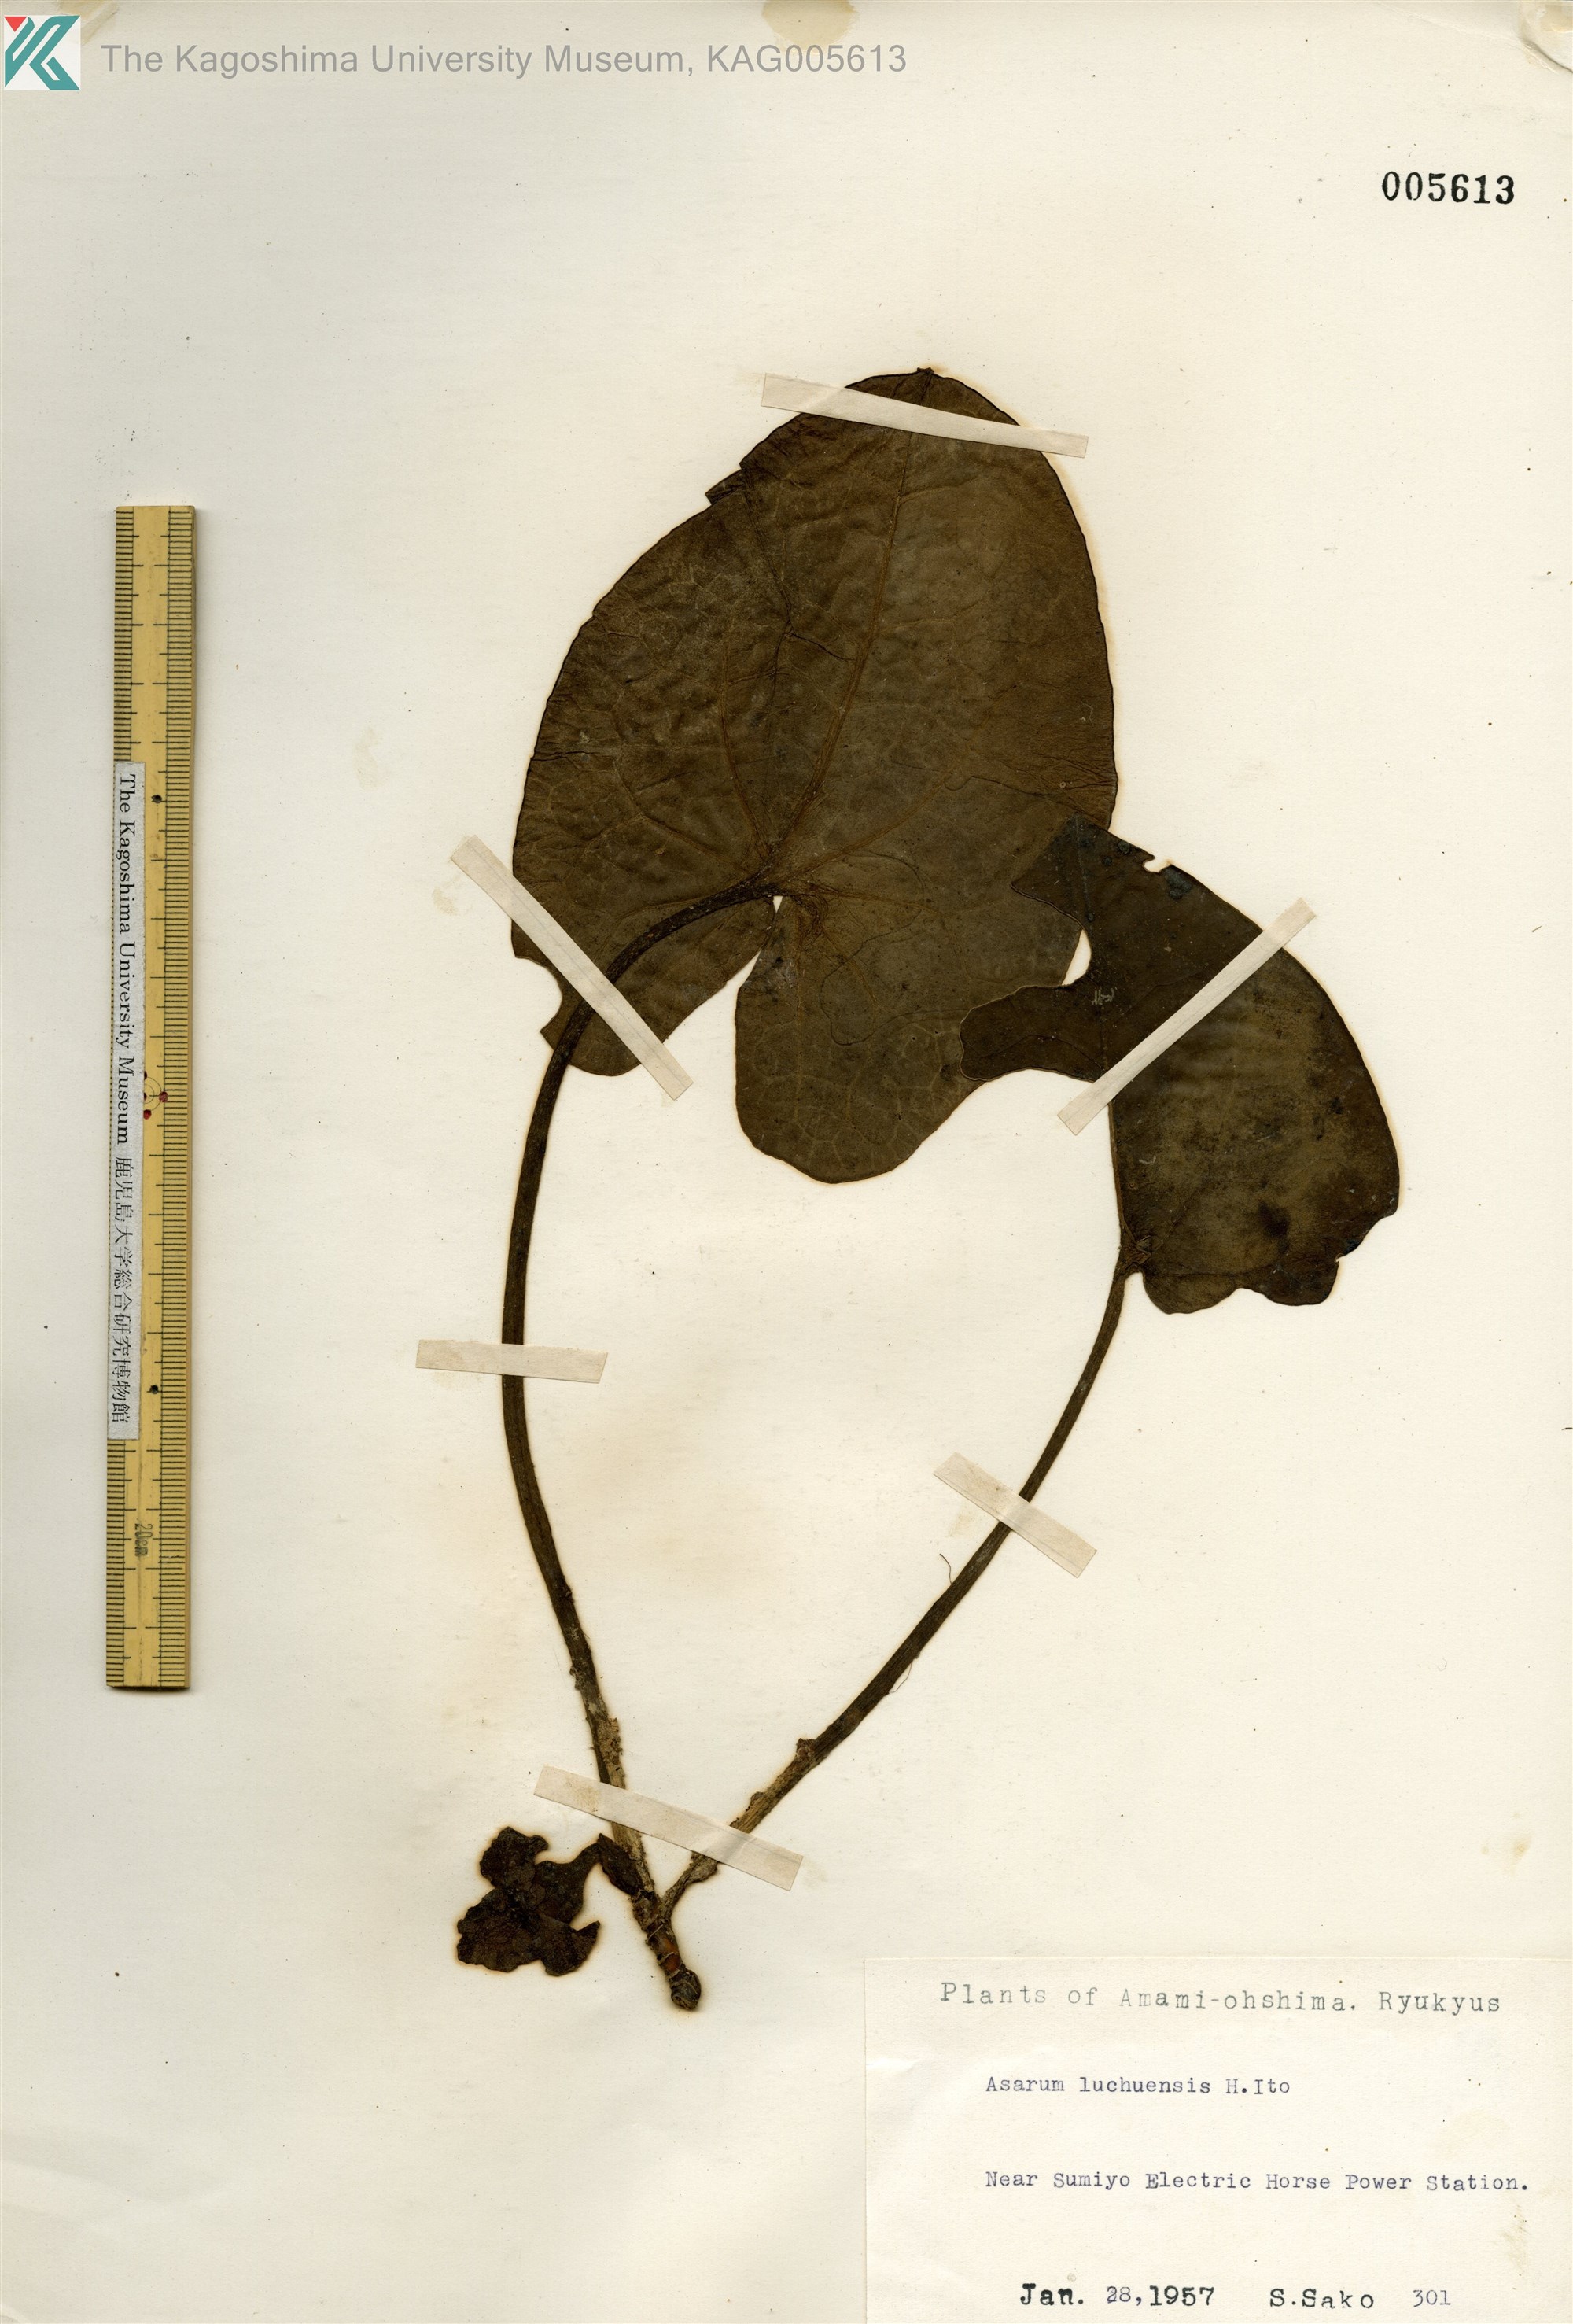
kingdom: Plantae
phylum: Tracheophyta
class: Magnoliopsida
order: Piperales
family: Aristolochiaceae
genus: Asarum
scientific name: Asarum lutchuense
